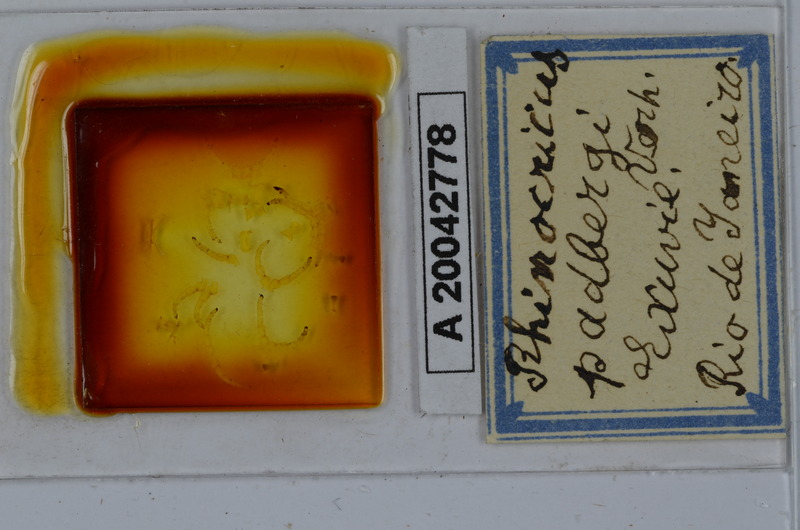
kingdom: Animalia
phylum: Arthropoda
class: Diplopoda
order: Spirobolida
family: Rhinocricidae
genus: Rhinocricus
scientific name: Rhinocricus padbergi
